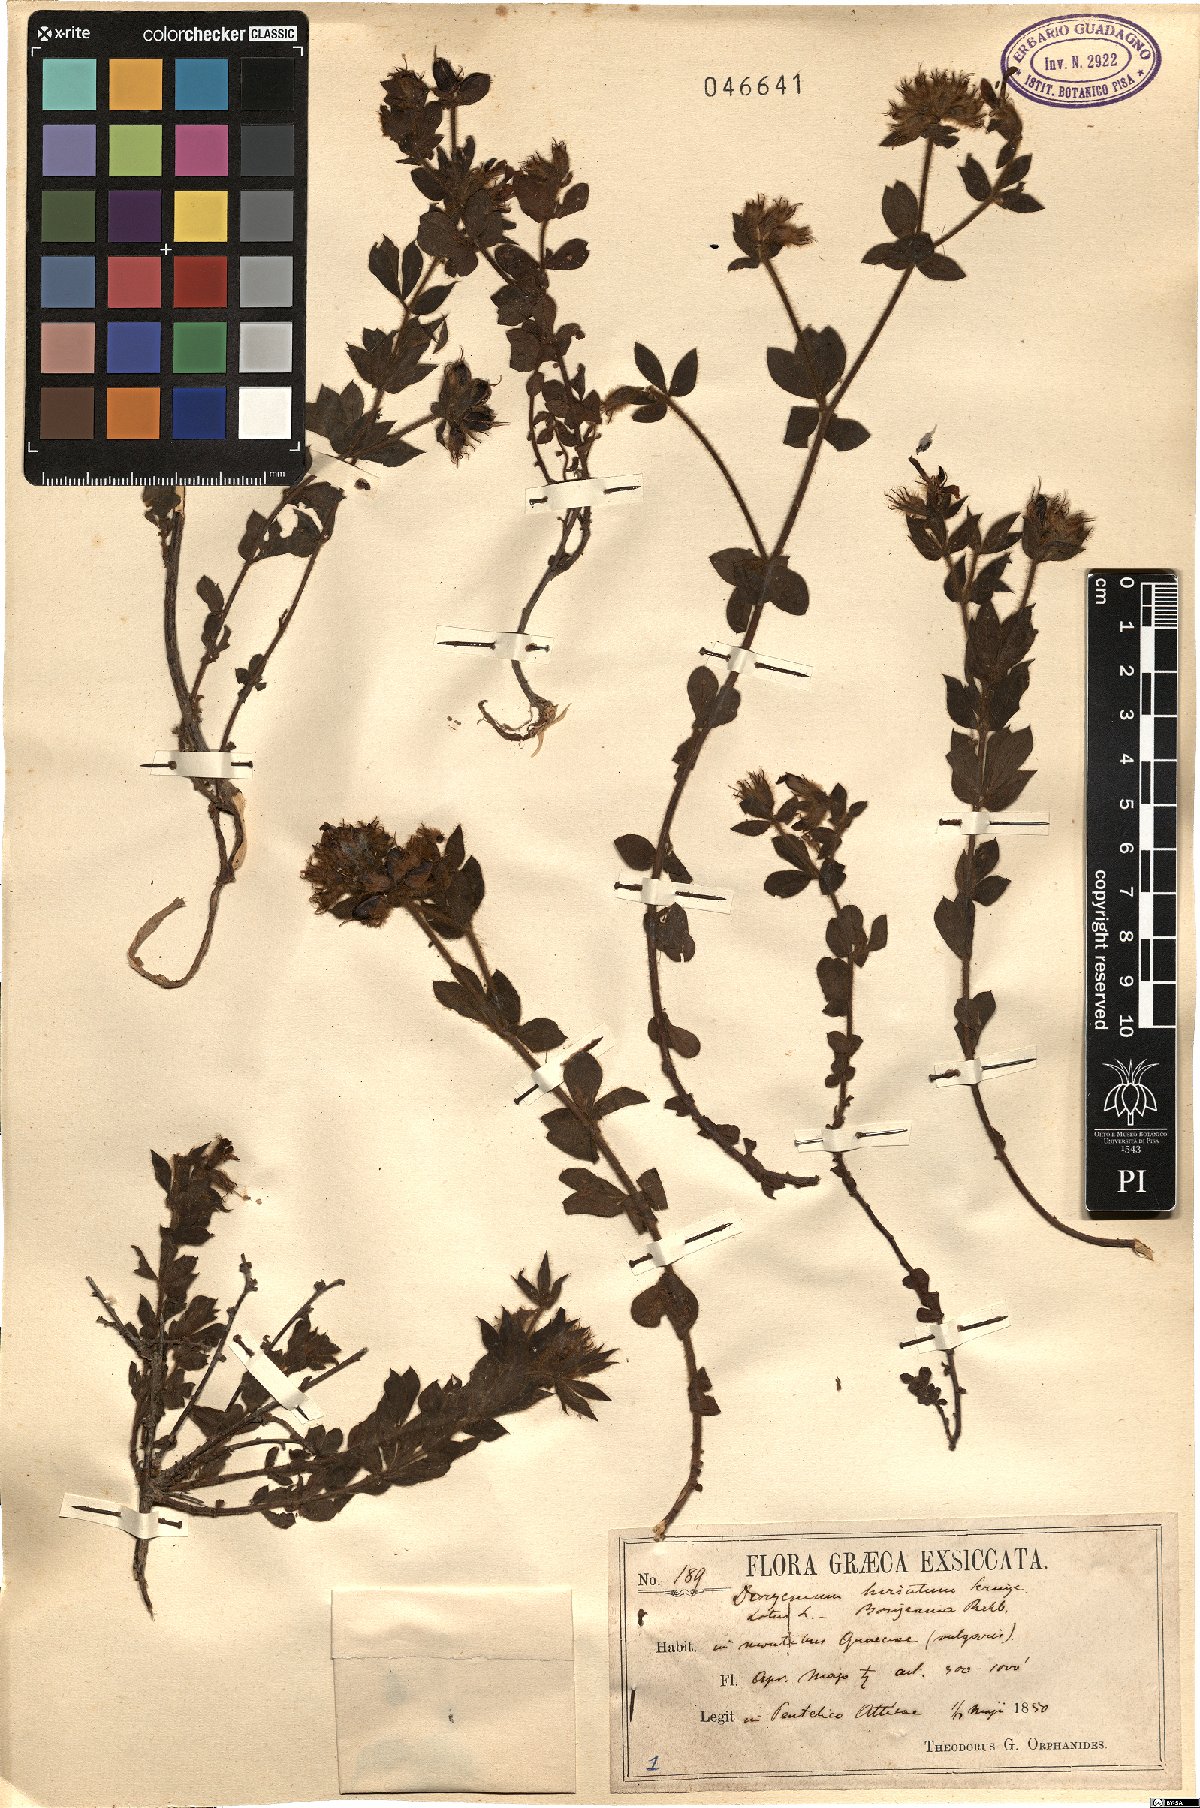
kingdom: Plantae
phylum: Tracheophyta
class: Magnoliopsida
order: Fabales
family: Fabaceae
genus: Lotus
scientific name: Lotus hirsutus
